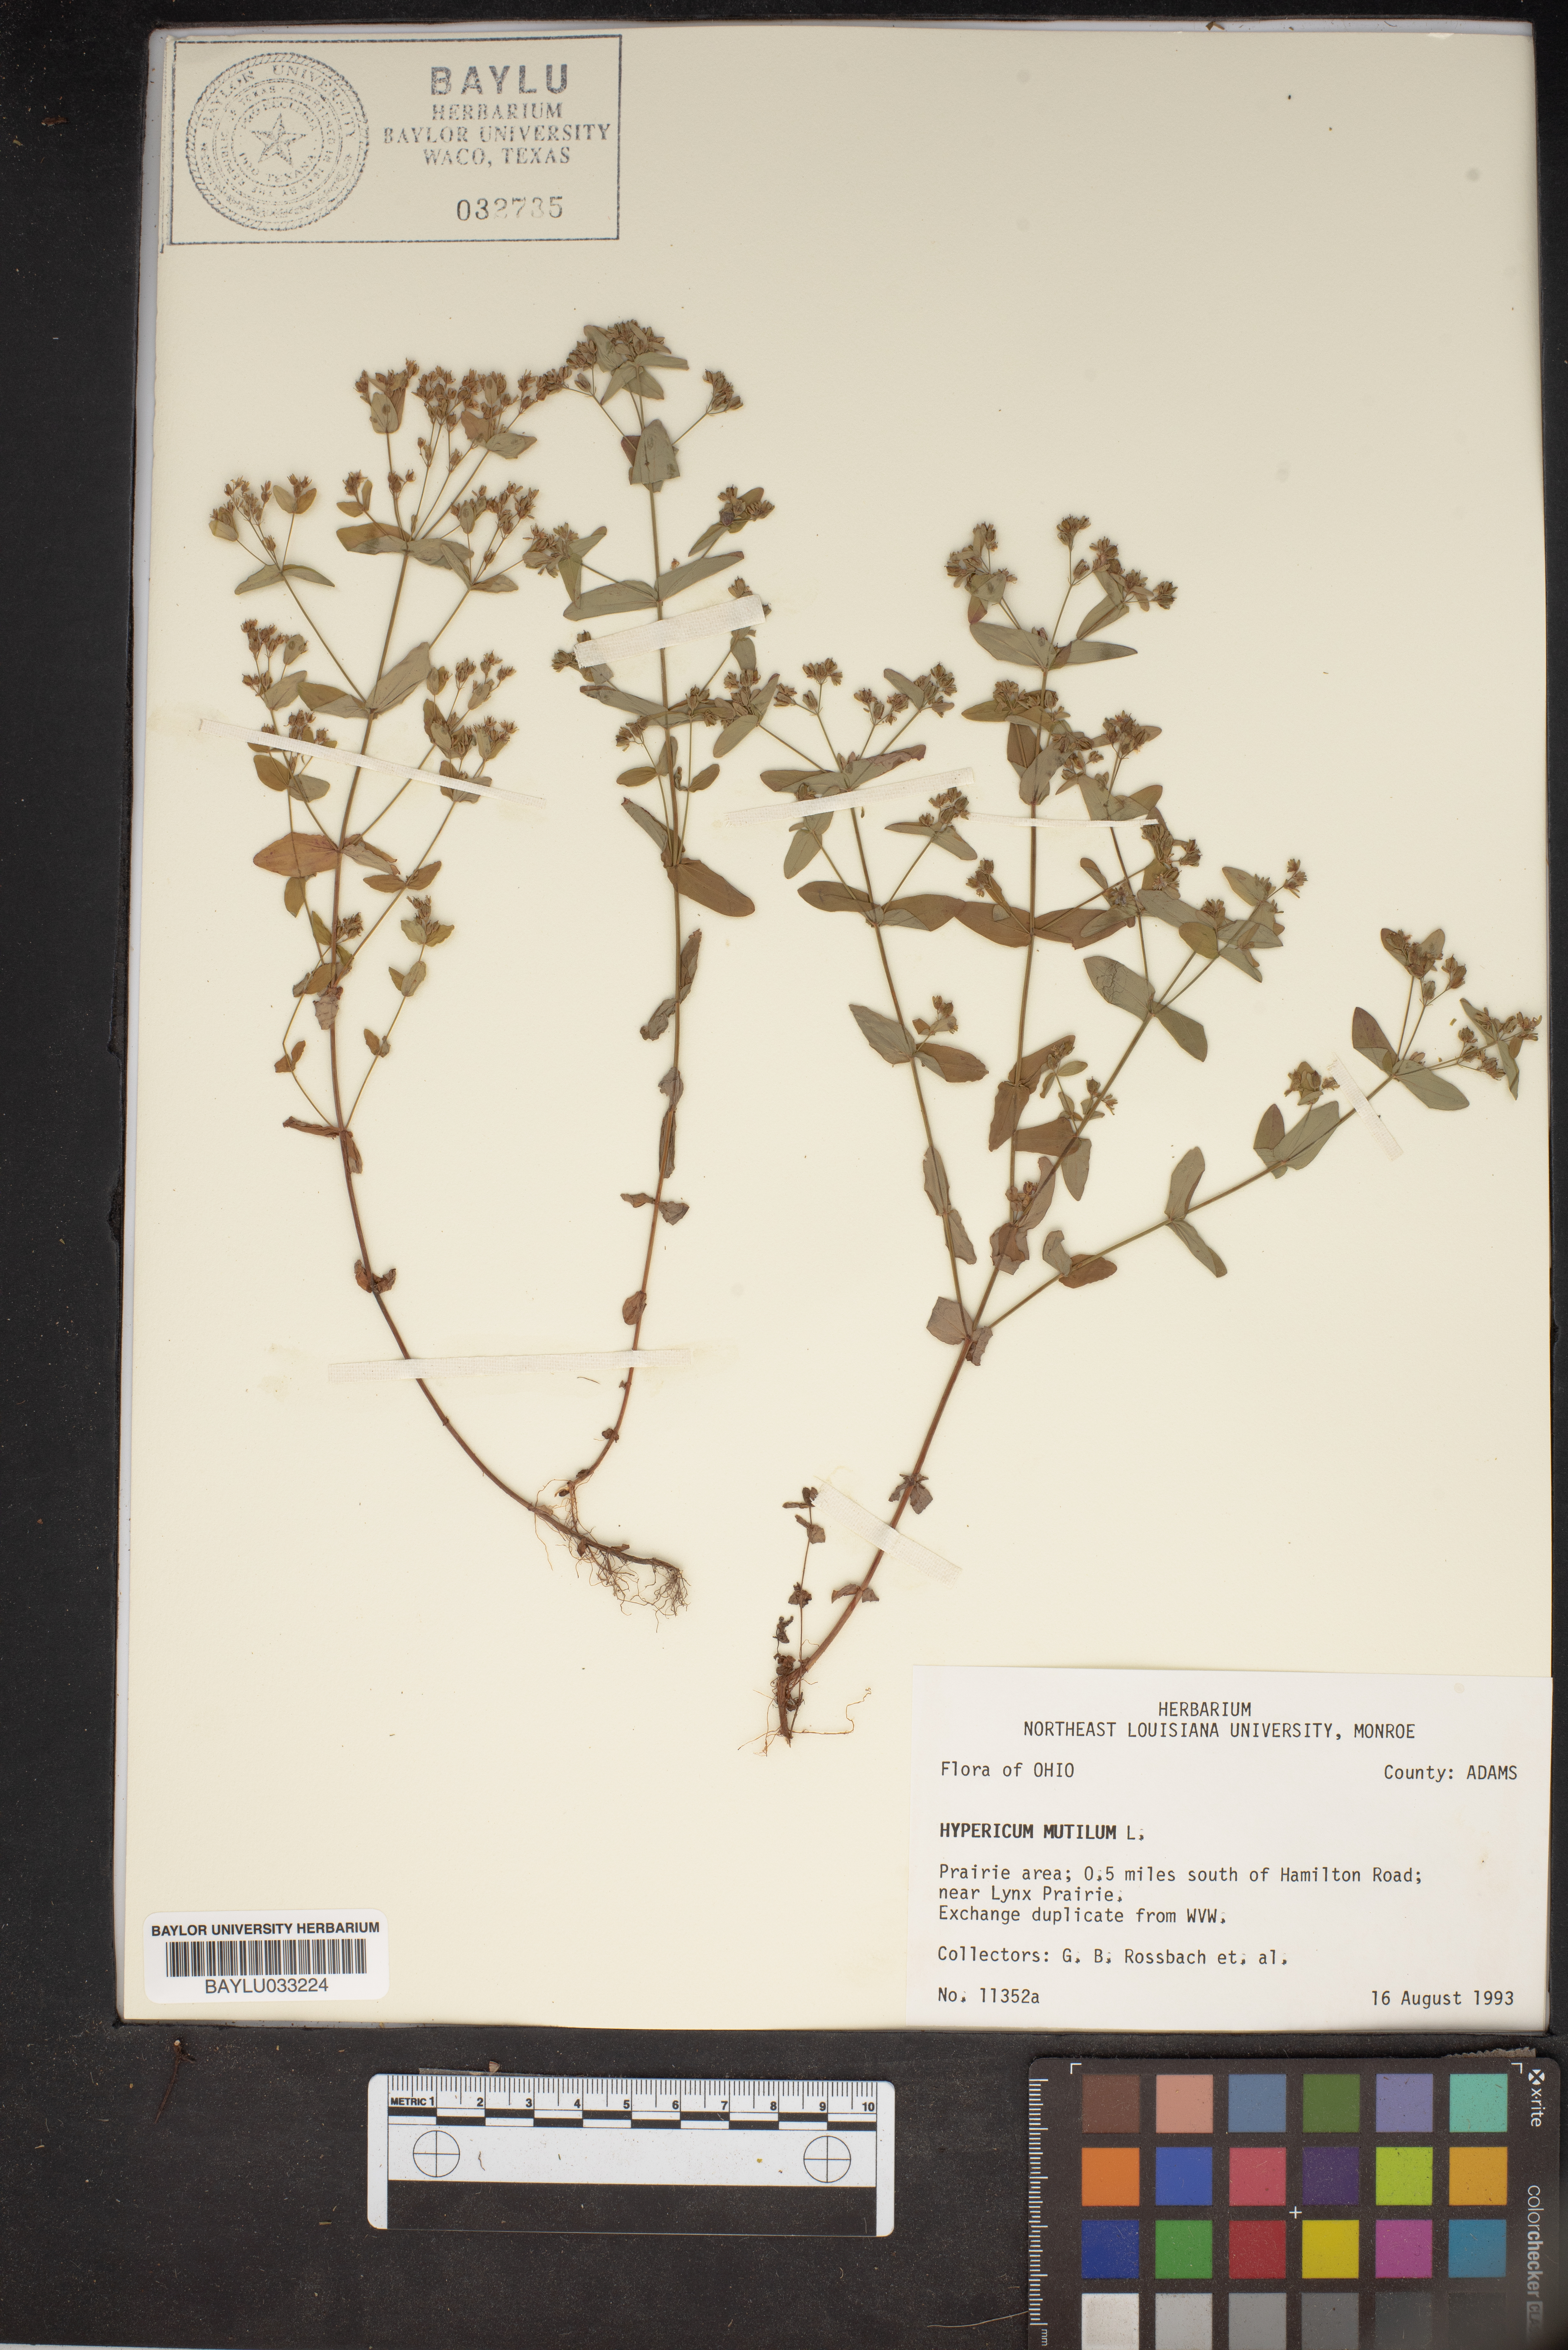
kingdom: Plantae
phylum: Tracheophyta
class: Magnoliopsida
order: Malpighiales
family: Hypericaceae
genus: Hypericum
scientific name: Hypericum mutilum
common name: Dwarf st. john's-wort
